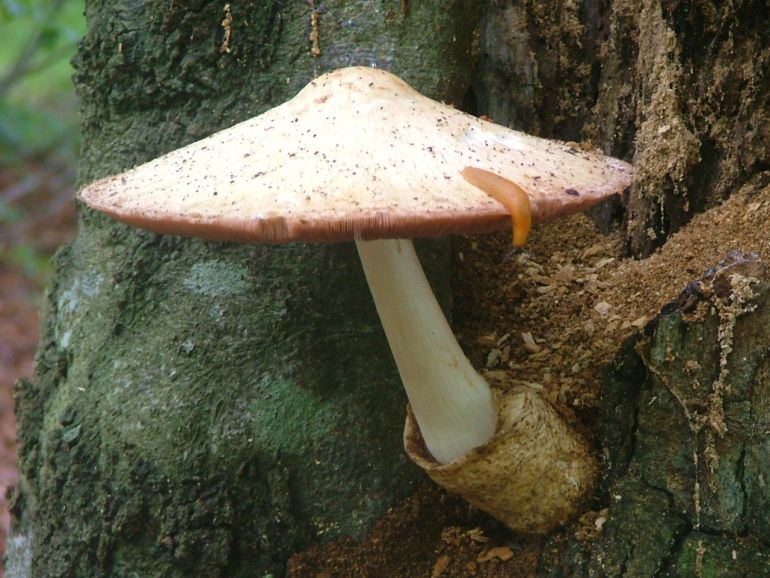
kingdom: Fungi
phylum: Basidiomycota
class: Agaricomycetes
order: Agaricales
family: Pluteaceae
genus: Volvariella
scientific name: Volvariella bombycina
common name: silkehåret posesvamp
